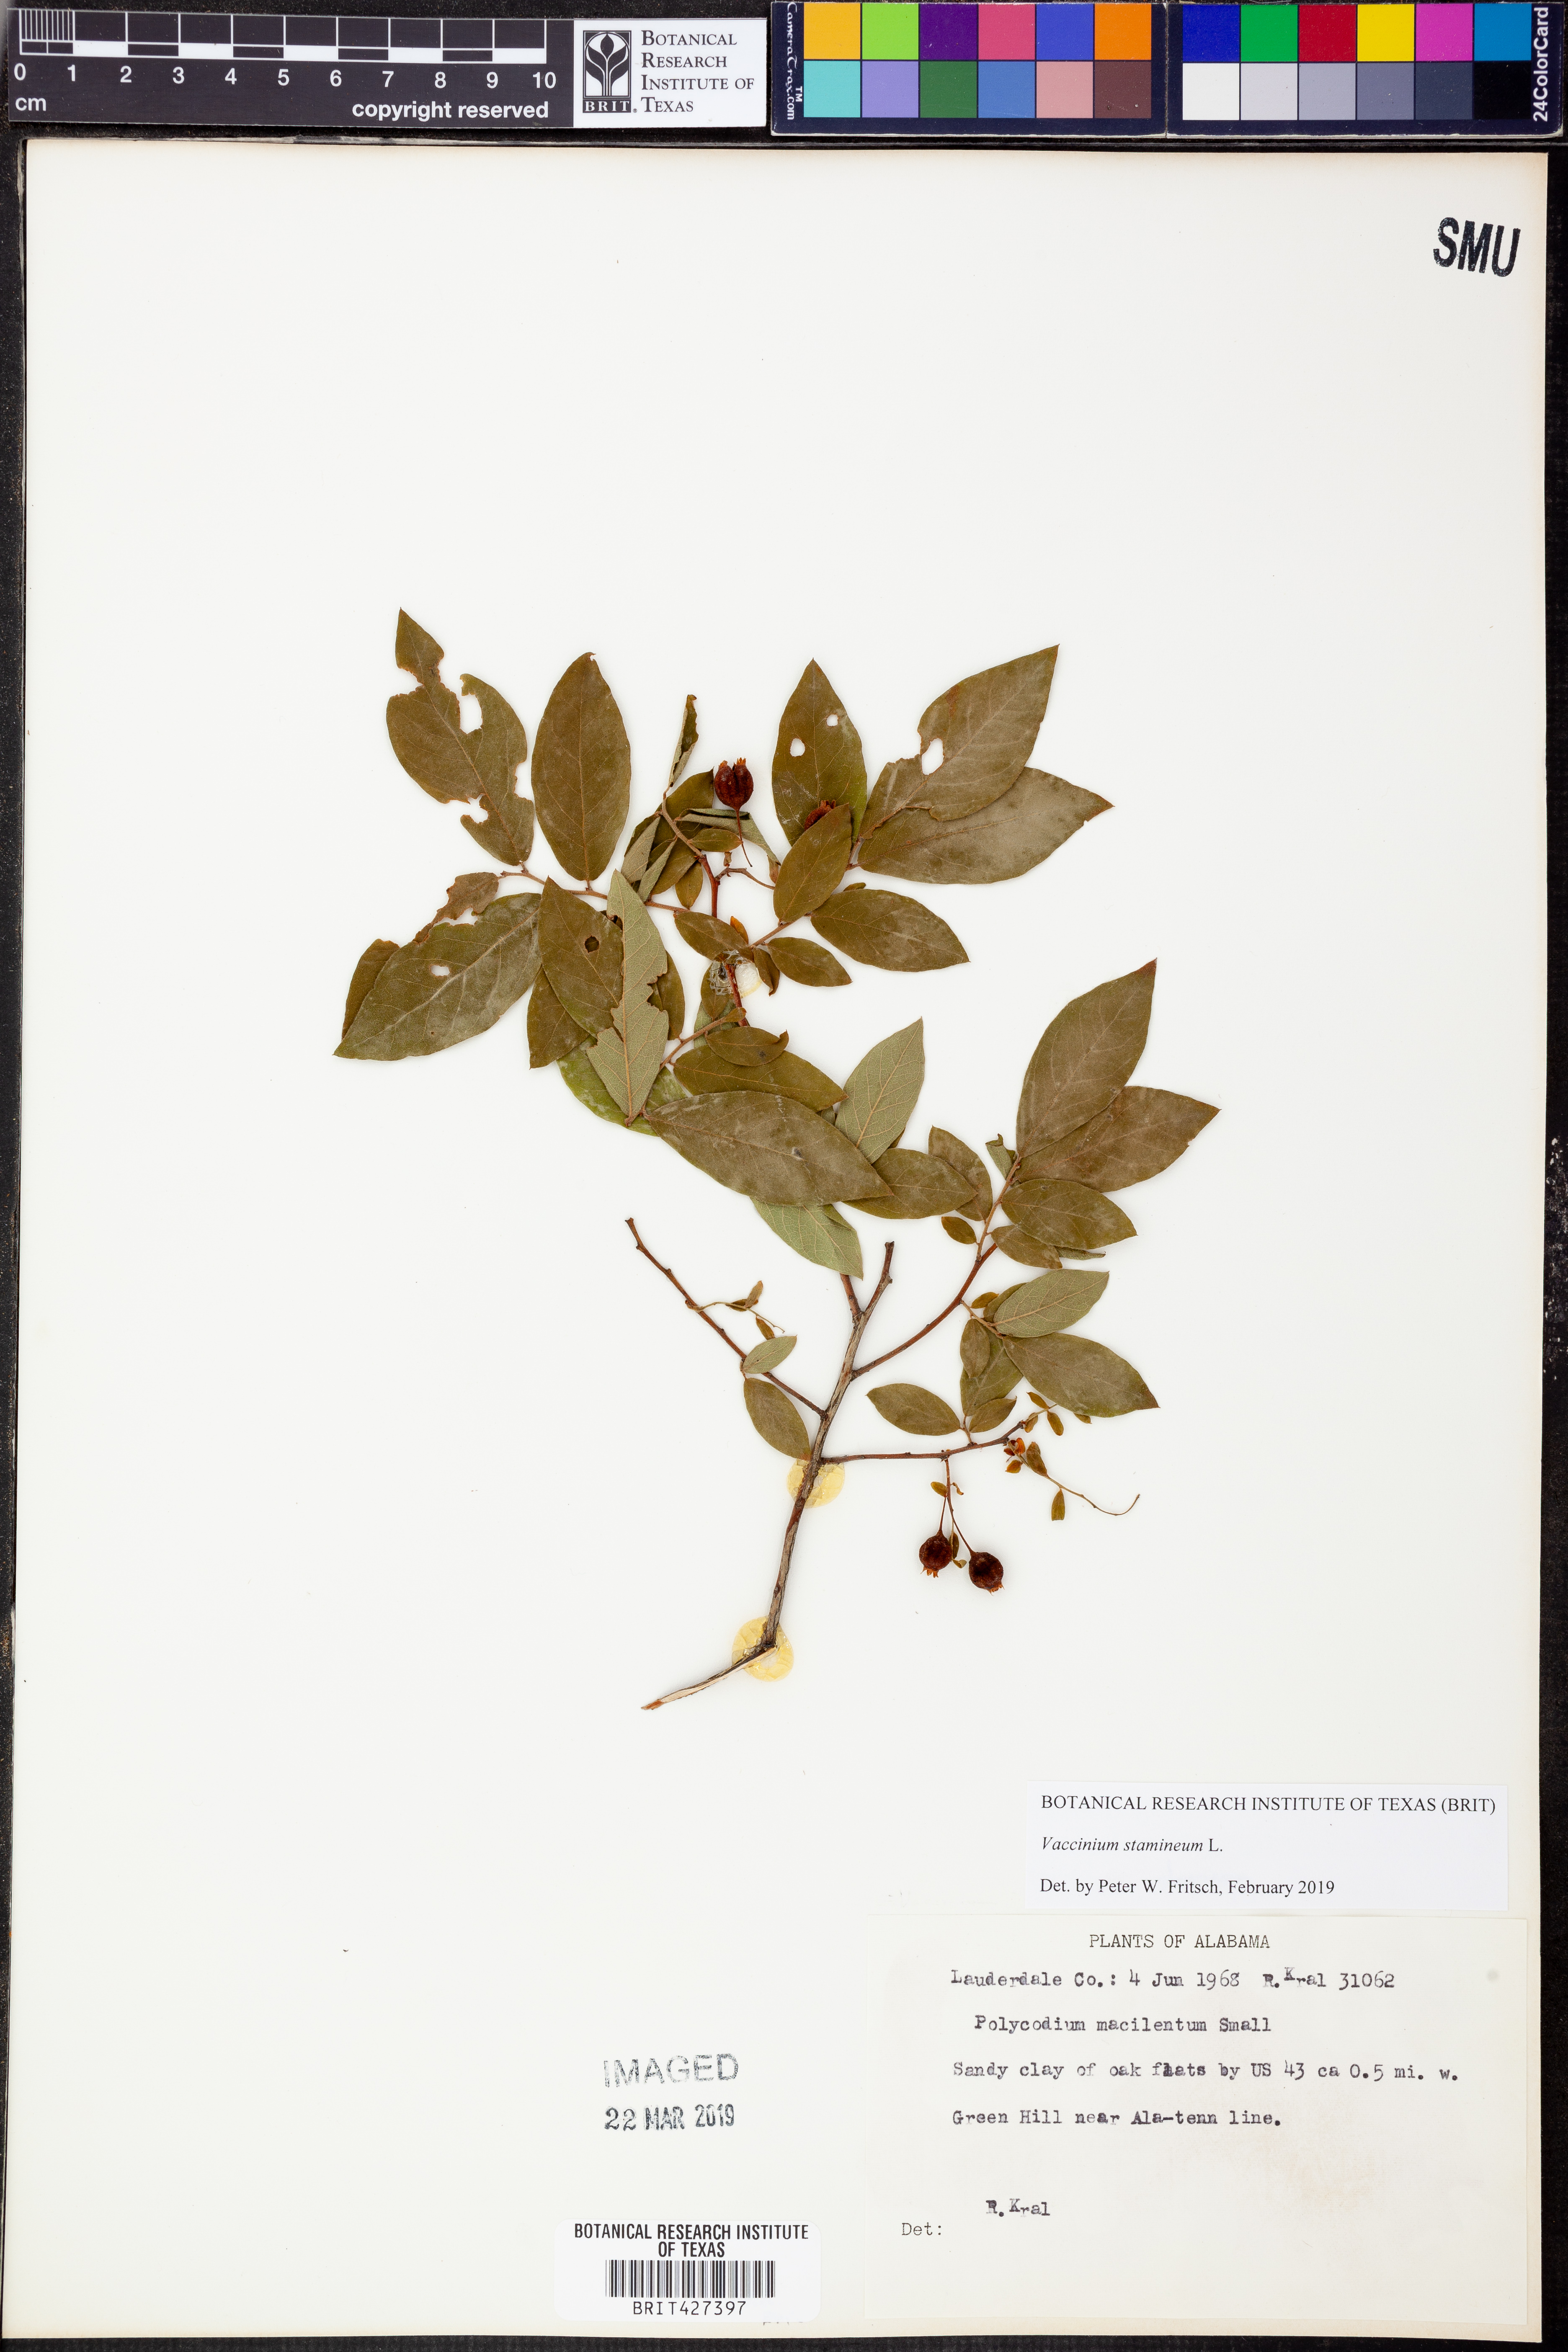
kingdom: Plantae
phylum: Tracheophyta
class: Magnoliopsida
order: Ericales
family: Ericaceae
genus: Vaccinium
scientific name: Vaccinium stamineum
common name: Deerberry
